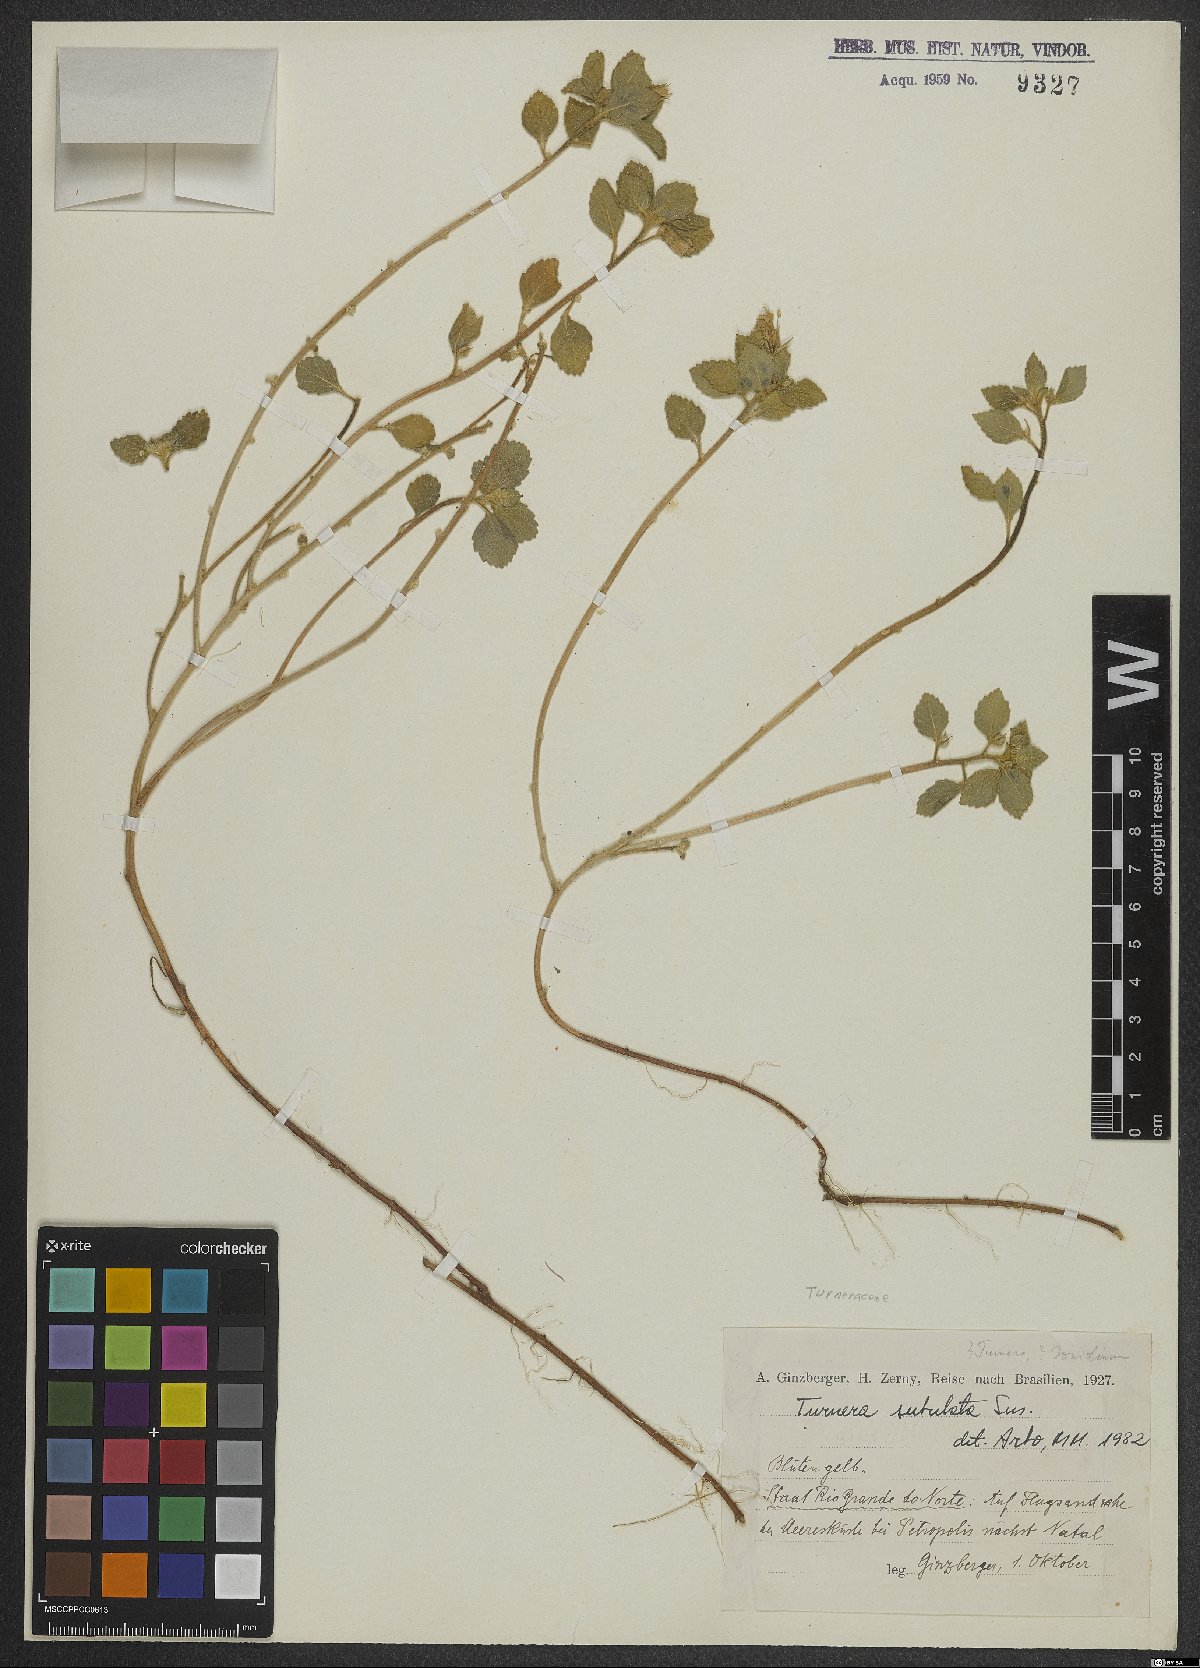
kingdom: Plantae
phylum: Tracheophyta
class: Magnoliopsida
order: Malpighiales
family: Turneraceae
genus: Turnera
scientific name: Turnera subulata
